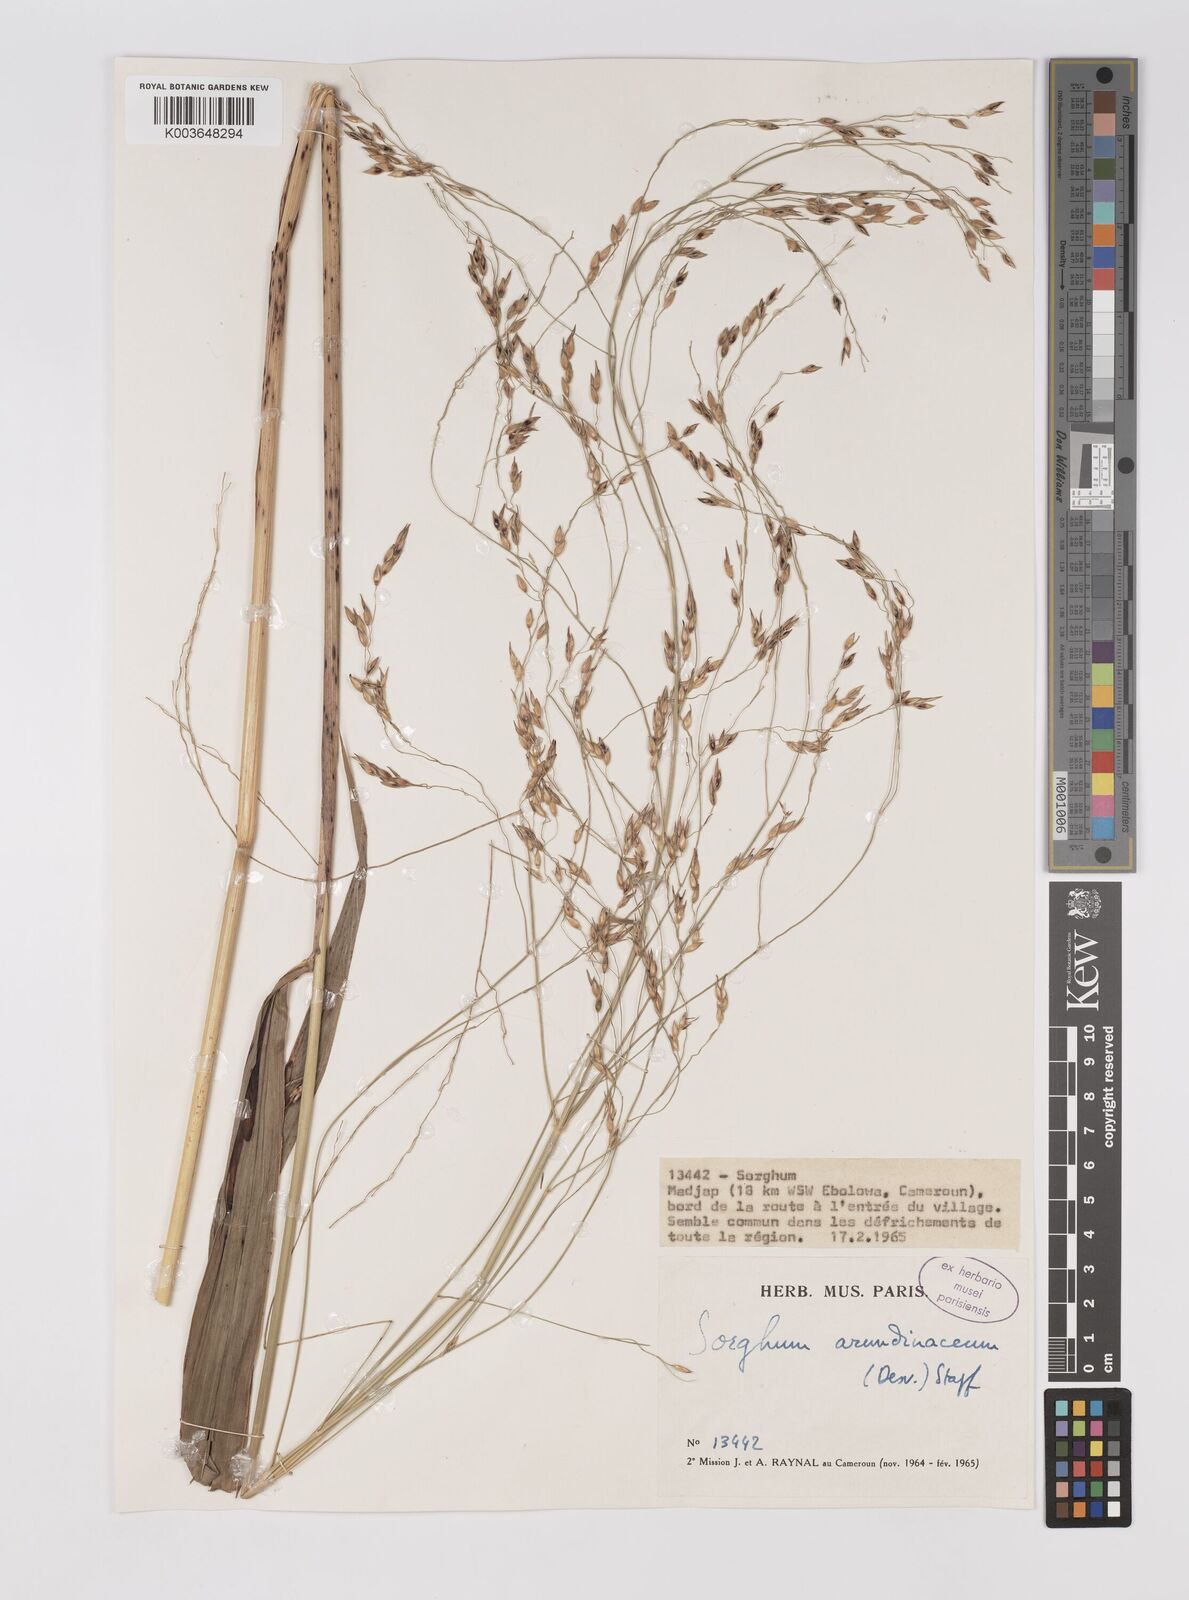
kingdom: Plantae
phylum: Tracheophyta
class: Liliopsida
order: Poales
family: Poaceae
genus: Sorghum
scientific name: Sorghum arundinaceum
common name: Sorghum
